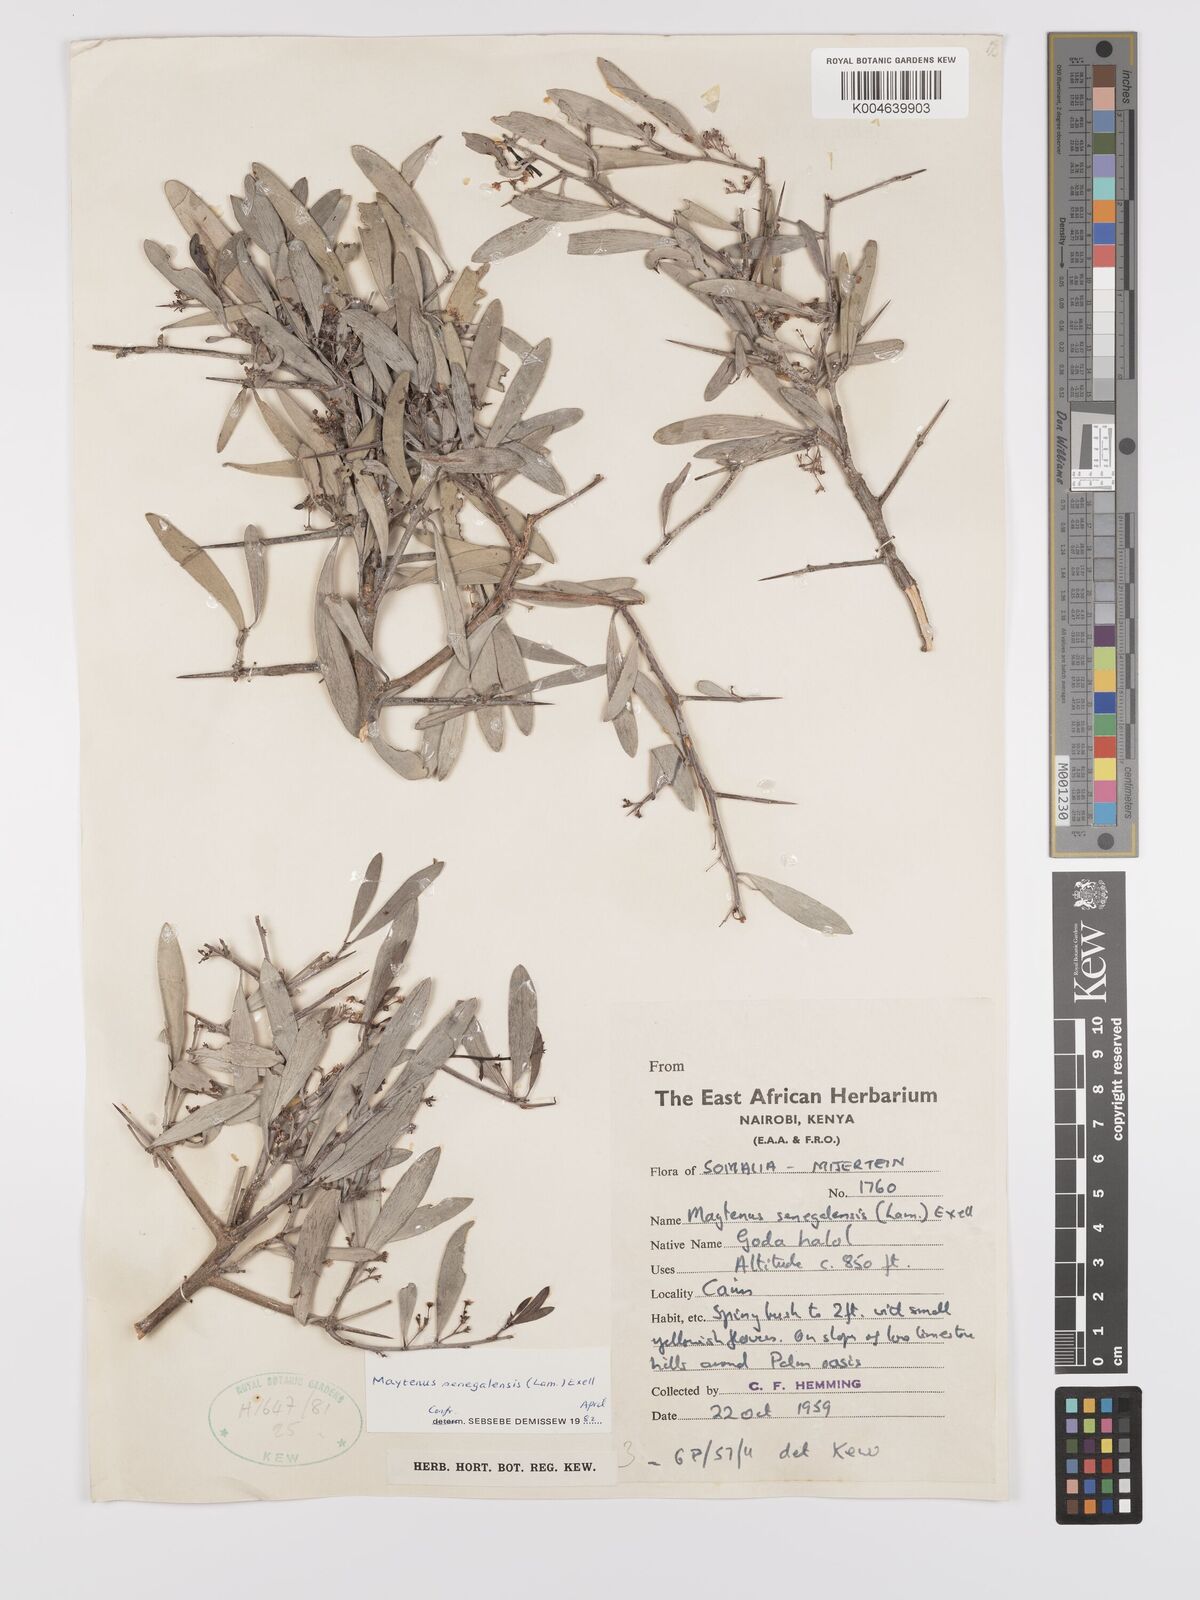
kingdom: Plantae
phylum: Tracheophyta
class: Magnoliopsida
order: Celastrales
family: Celastraceae
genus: Gymnosporia
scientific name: Gymnosporia senegalensis
